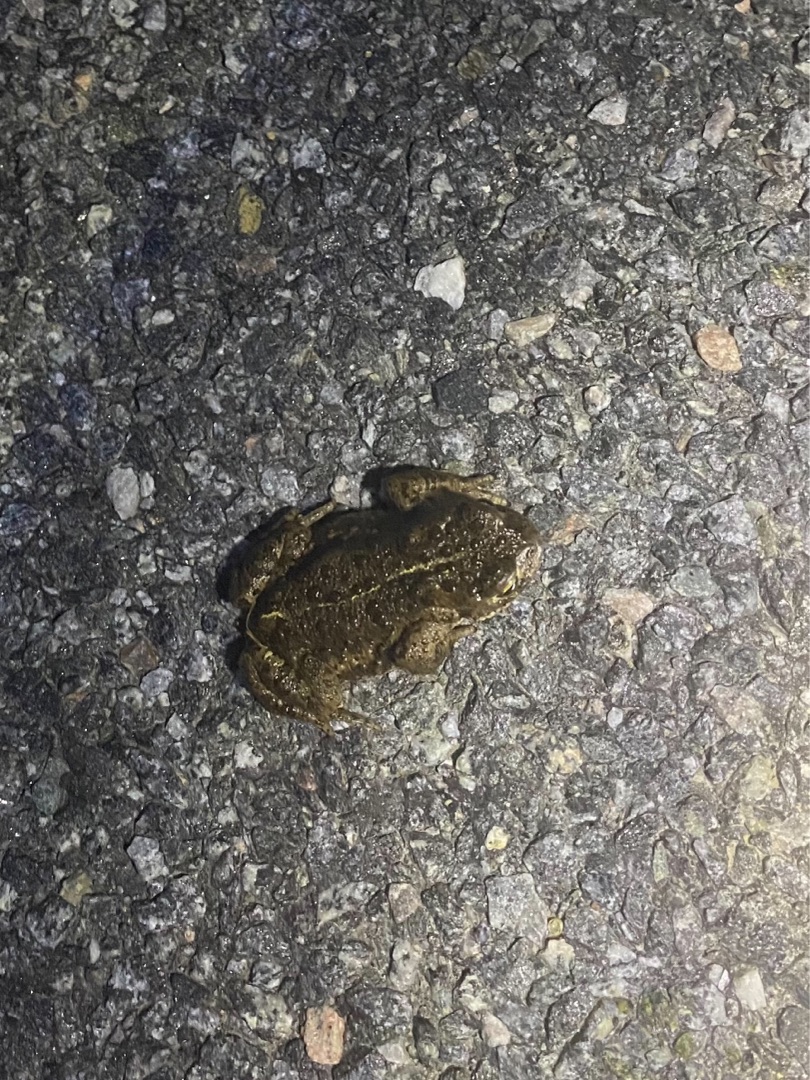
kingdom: Animalia
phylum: Chordata
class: Amphibia
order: Anura
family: Bufonidae
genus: Epidalea
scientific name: Epidalea calamita
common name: Strandtudse
